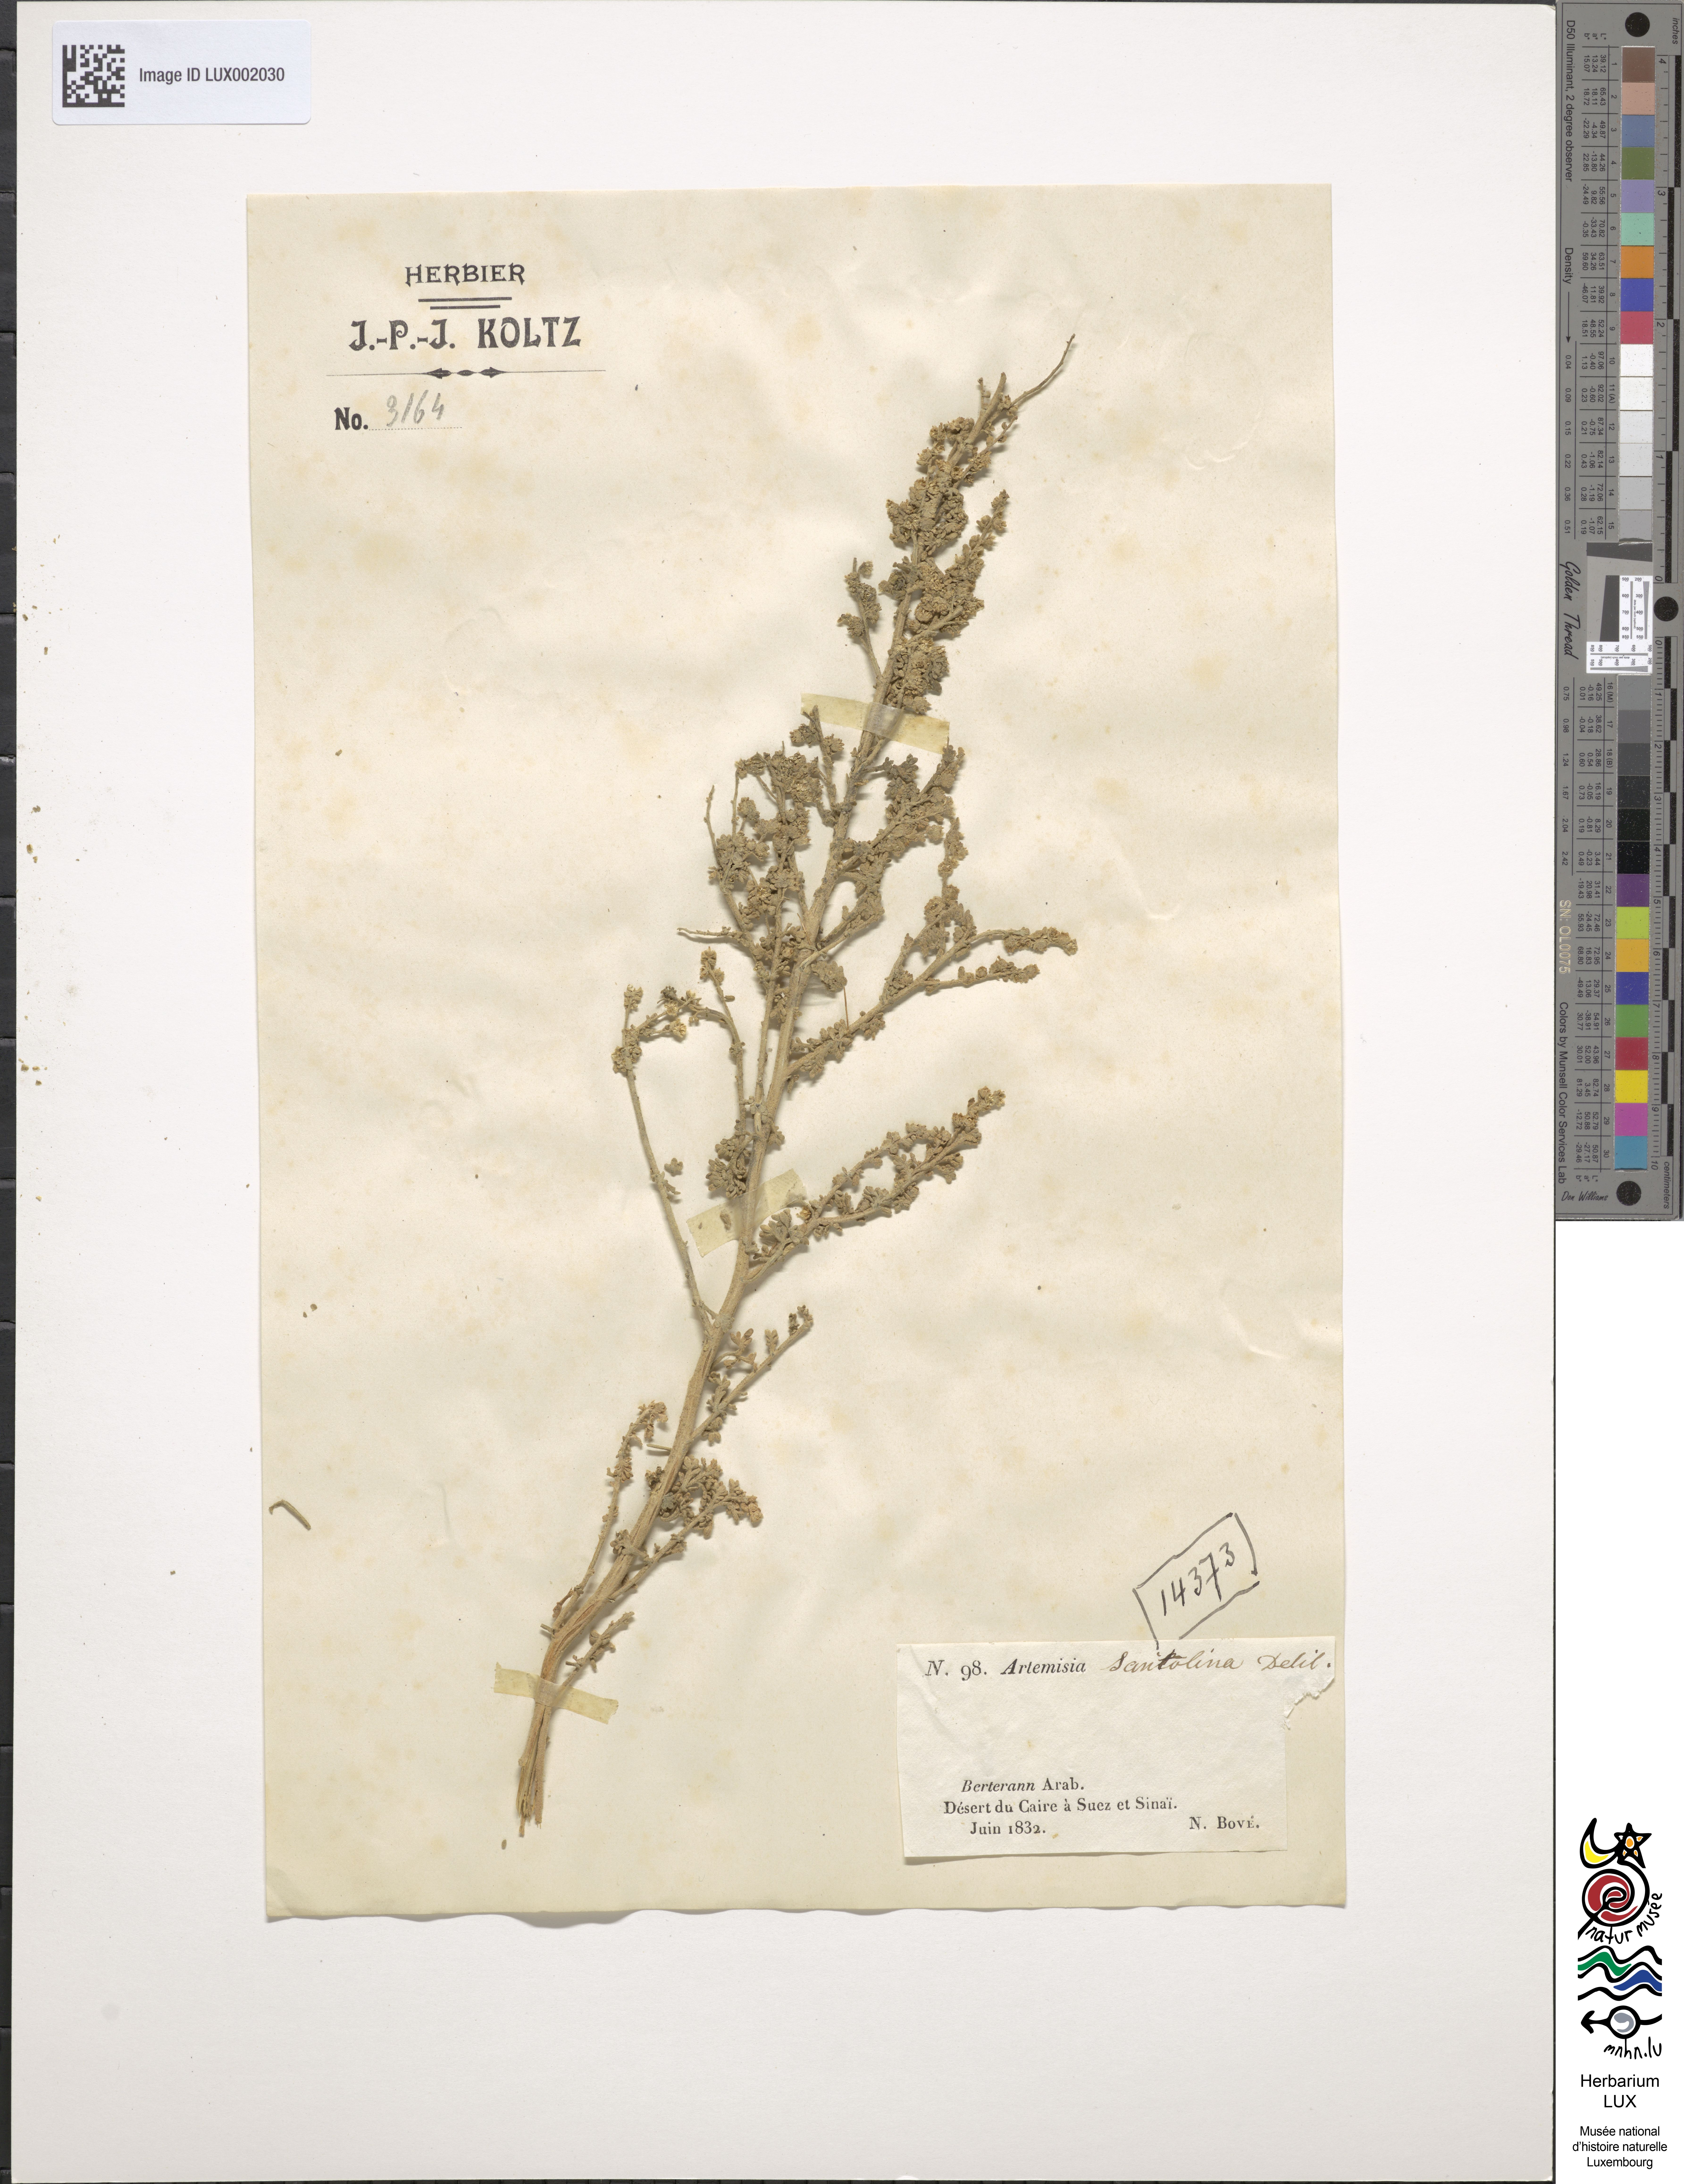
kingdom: Plantae
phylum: Tracheophyta
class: Magnoliopsida
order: Asterales
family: Asteraceae
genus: Artemisia
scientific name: Artemisia santolina
